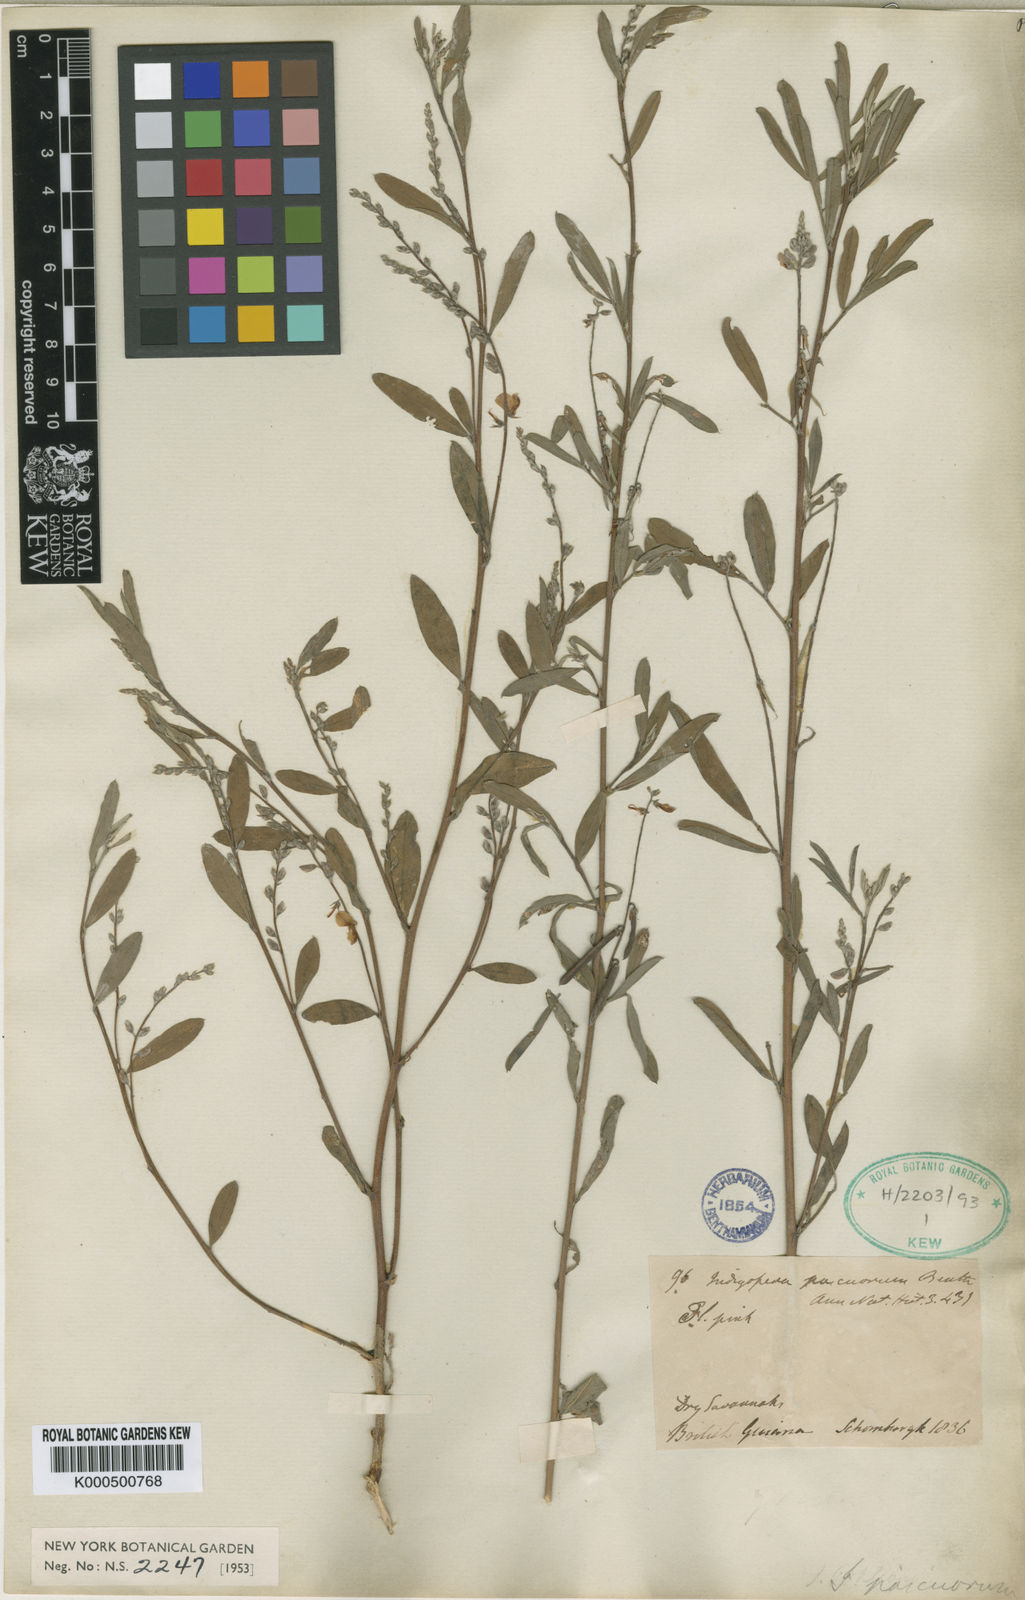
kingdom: Plantae
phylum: Tracheophyta
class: Magnoliopsida
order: Fabales
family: Fabaceae
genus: Indigofera
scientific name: Indigofera lespedezioides
